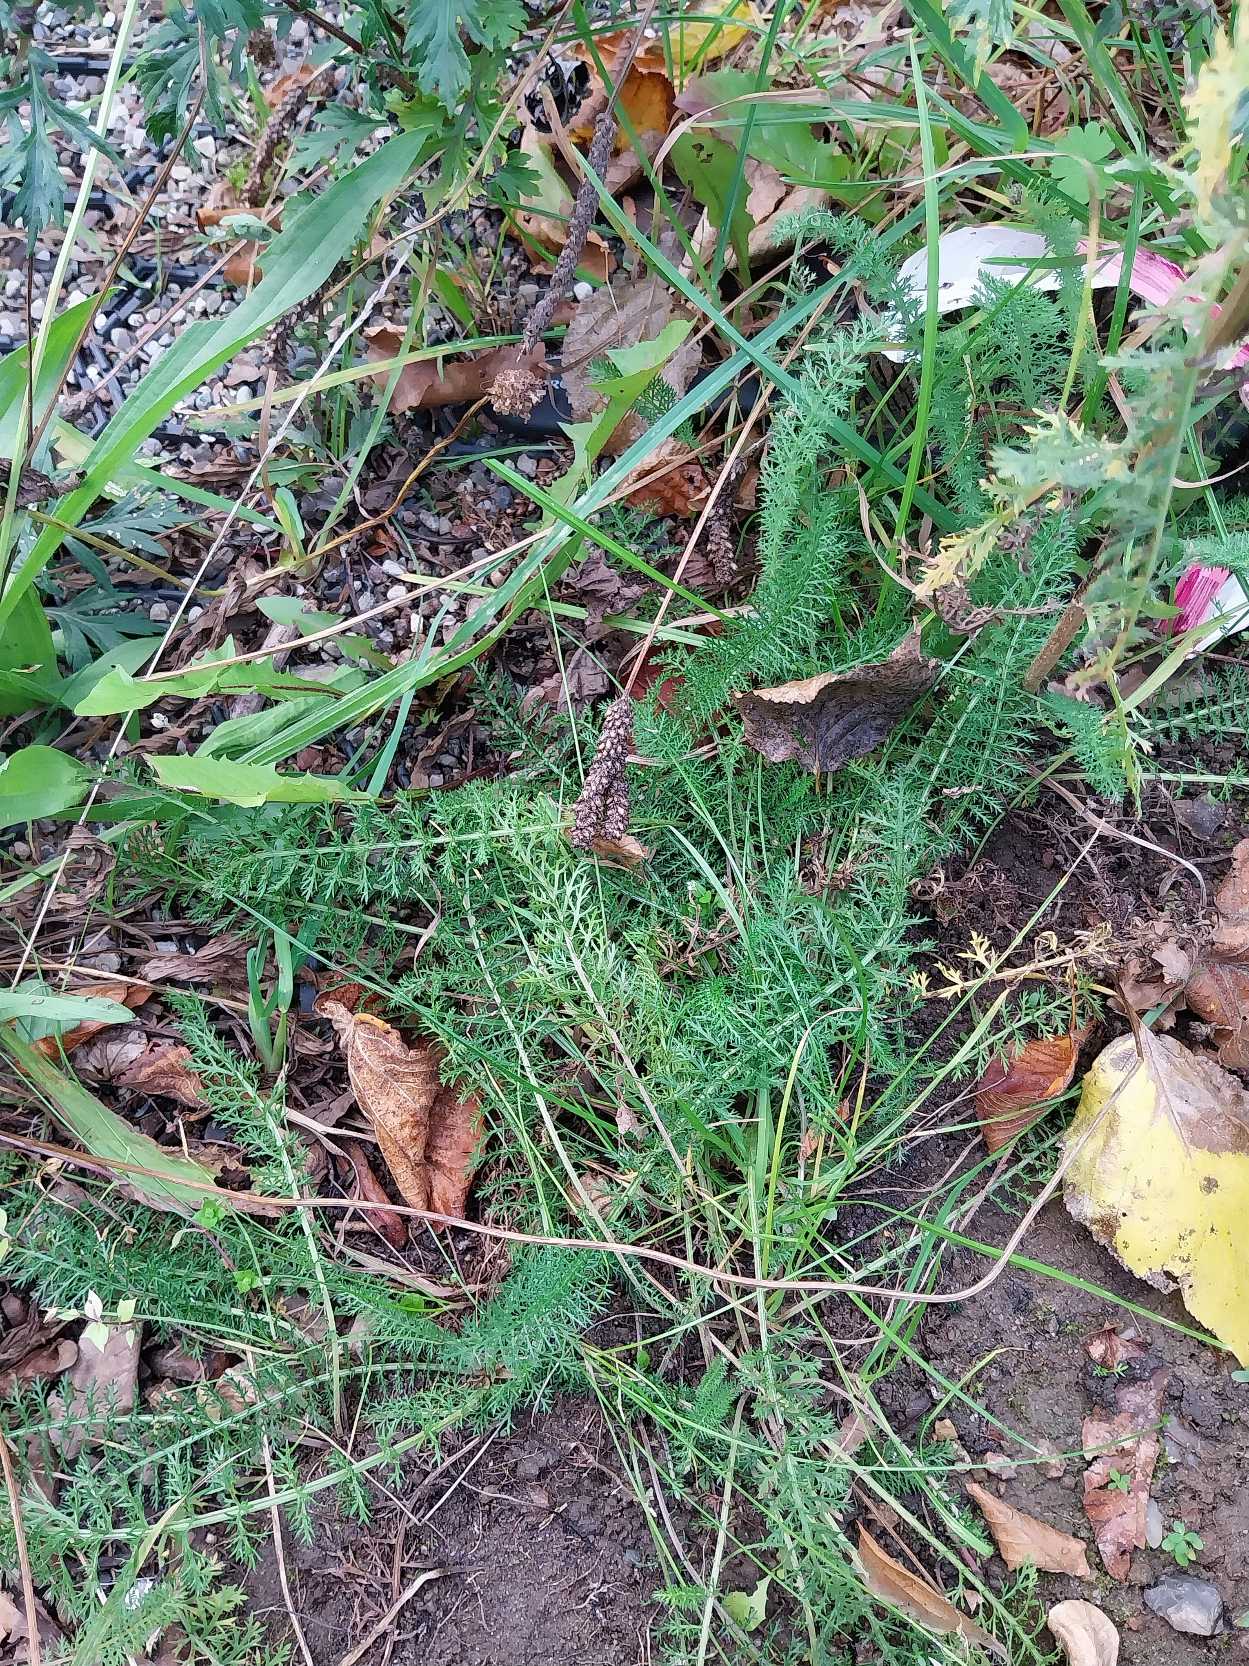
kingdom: Plantae
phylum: Tracheophyta
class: Magnoliopsida
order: Asterales
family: Asteraceae
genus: Achillea
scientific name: Achillea millefolium
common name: Almindelig røllike
